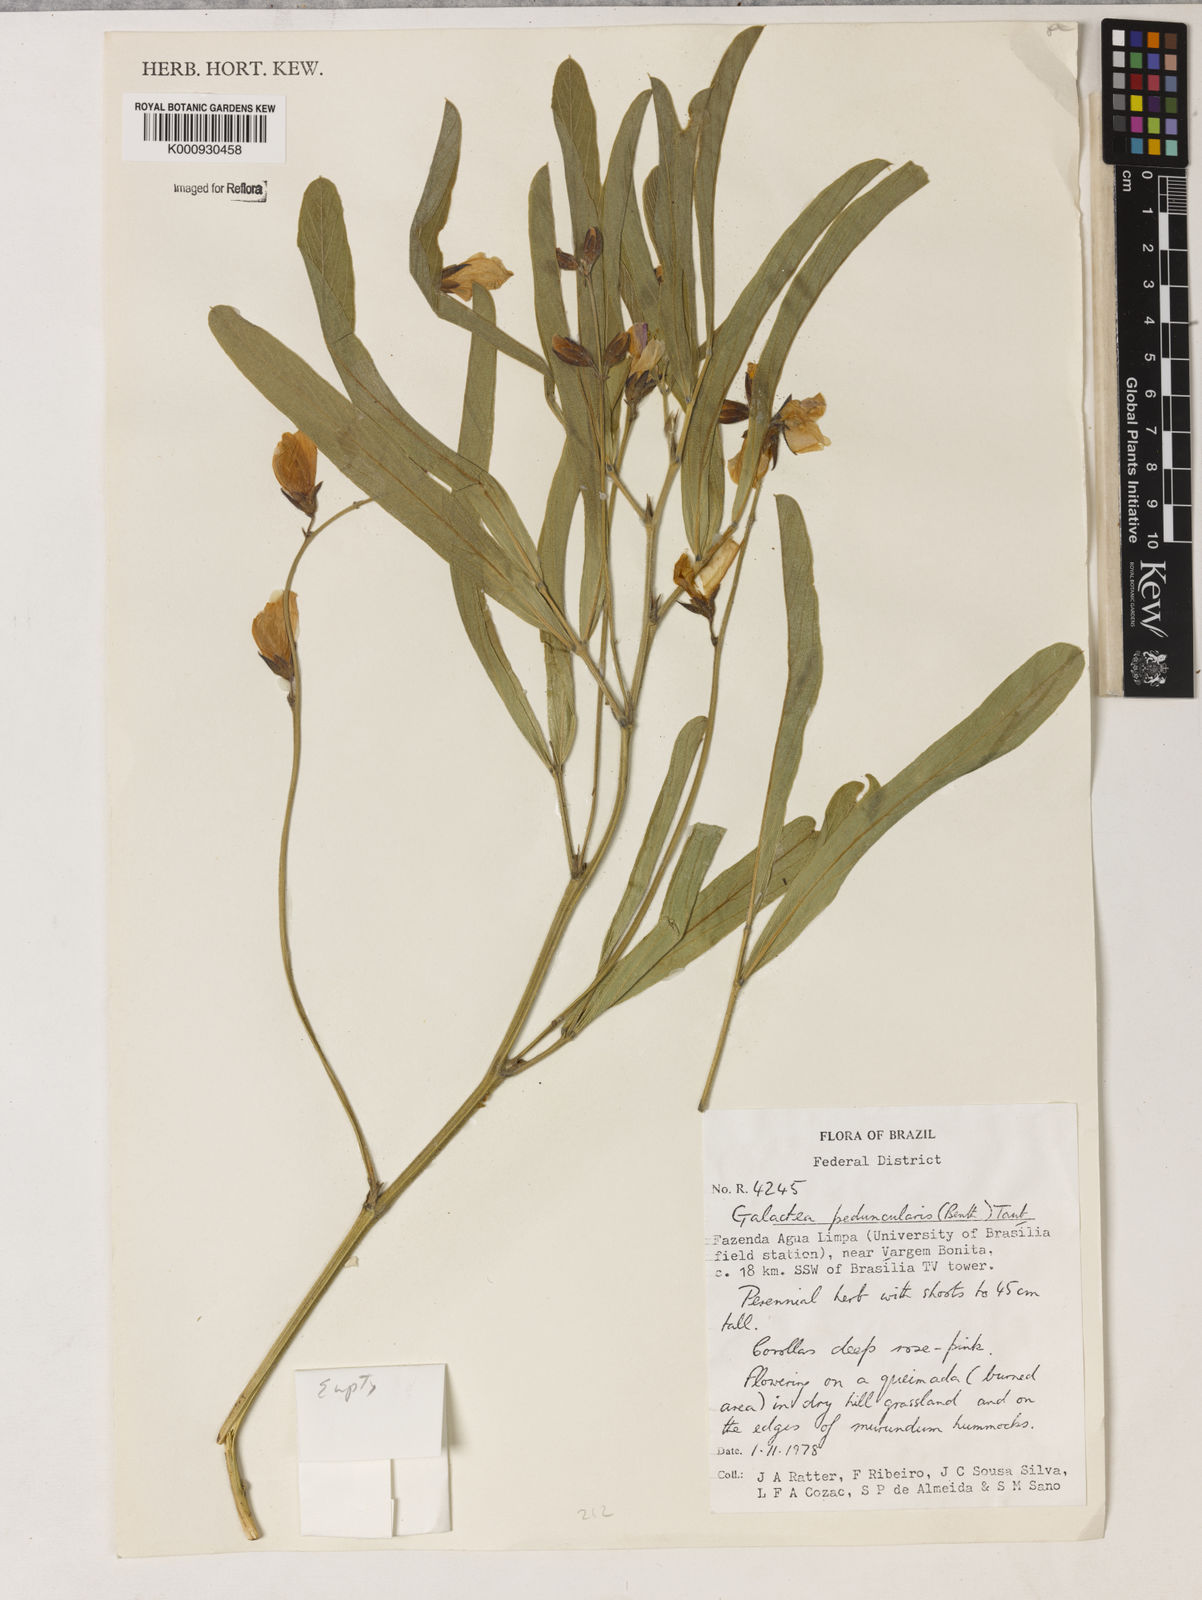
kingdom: Plantae
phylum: Tracheophyta
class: Magnoliopsida
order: Fabales
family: Fabaceae
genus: Galactia
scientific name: Galactia
